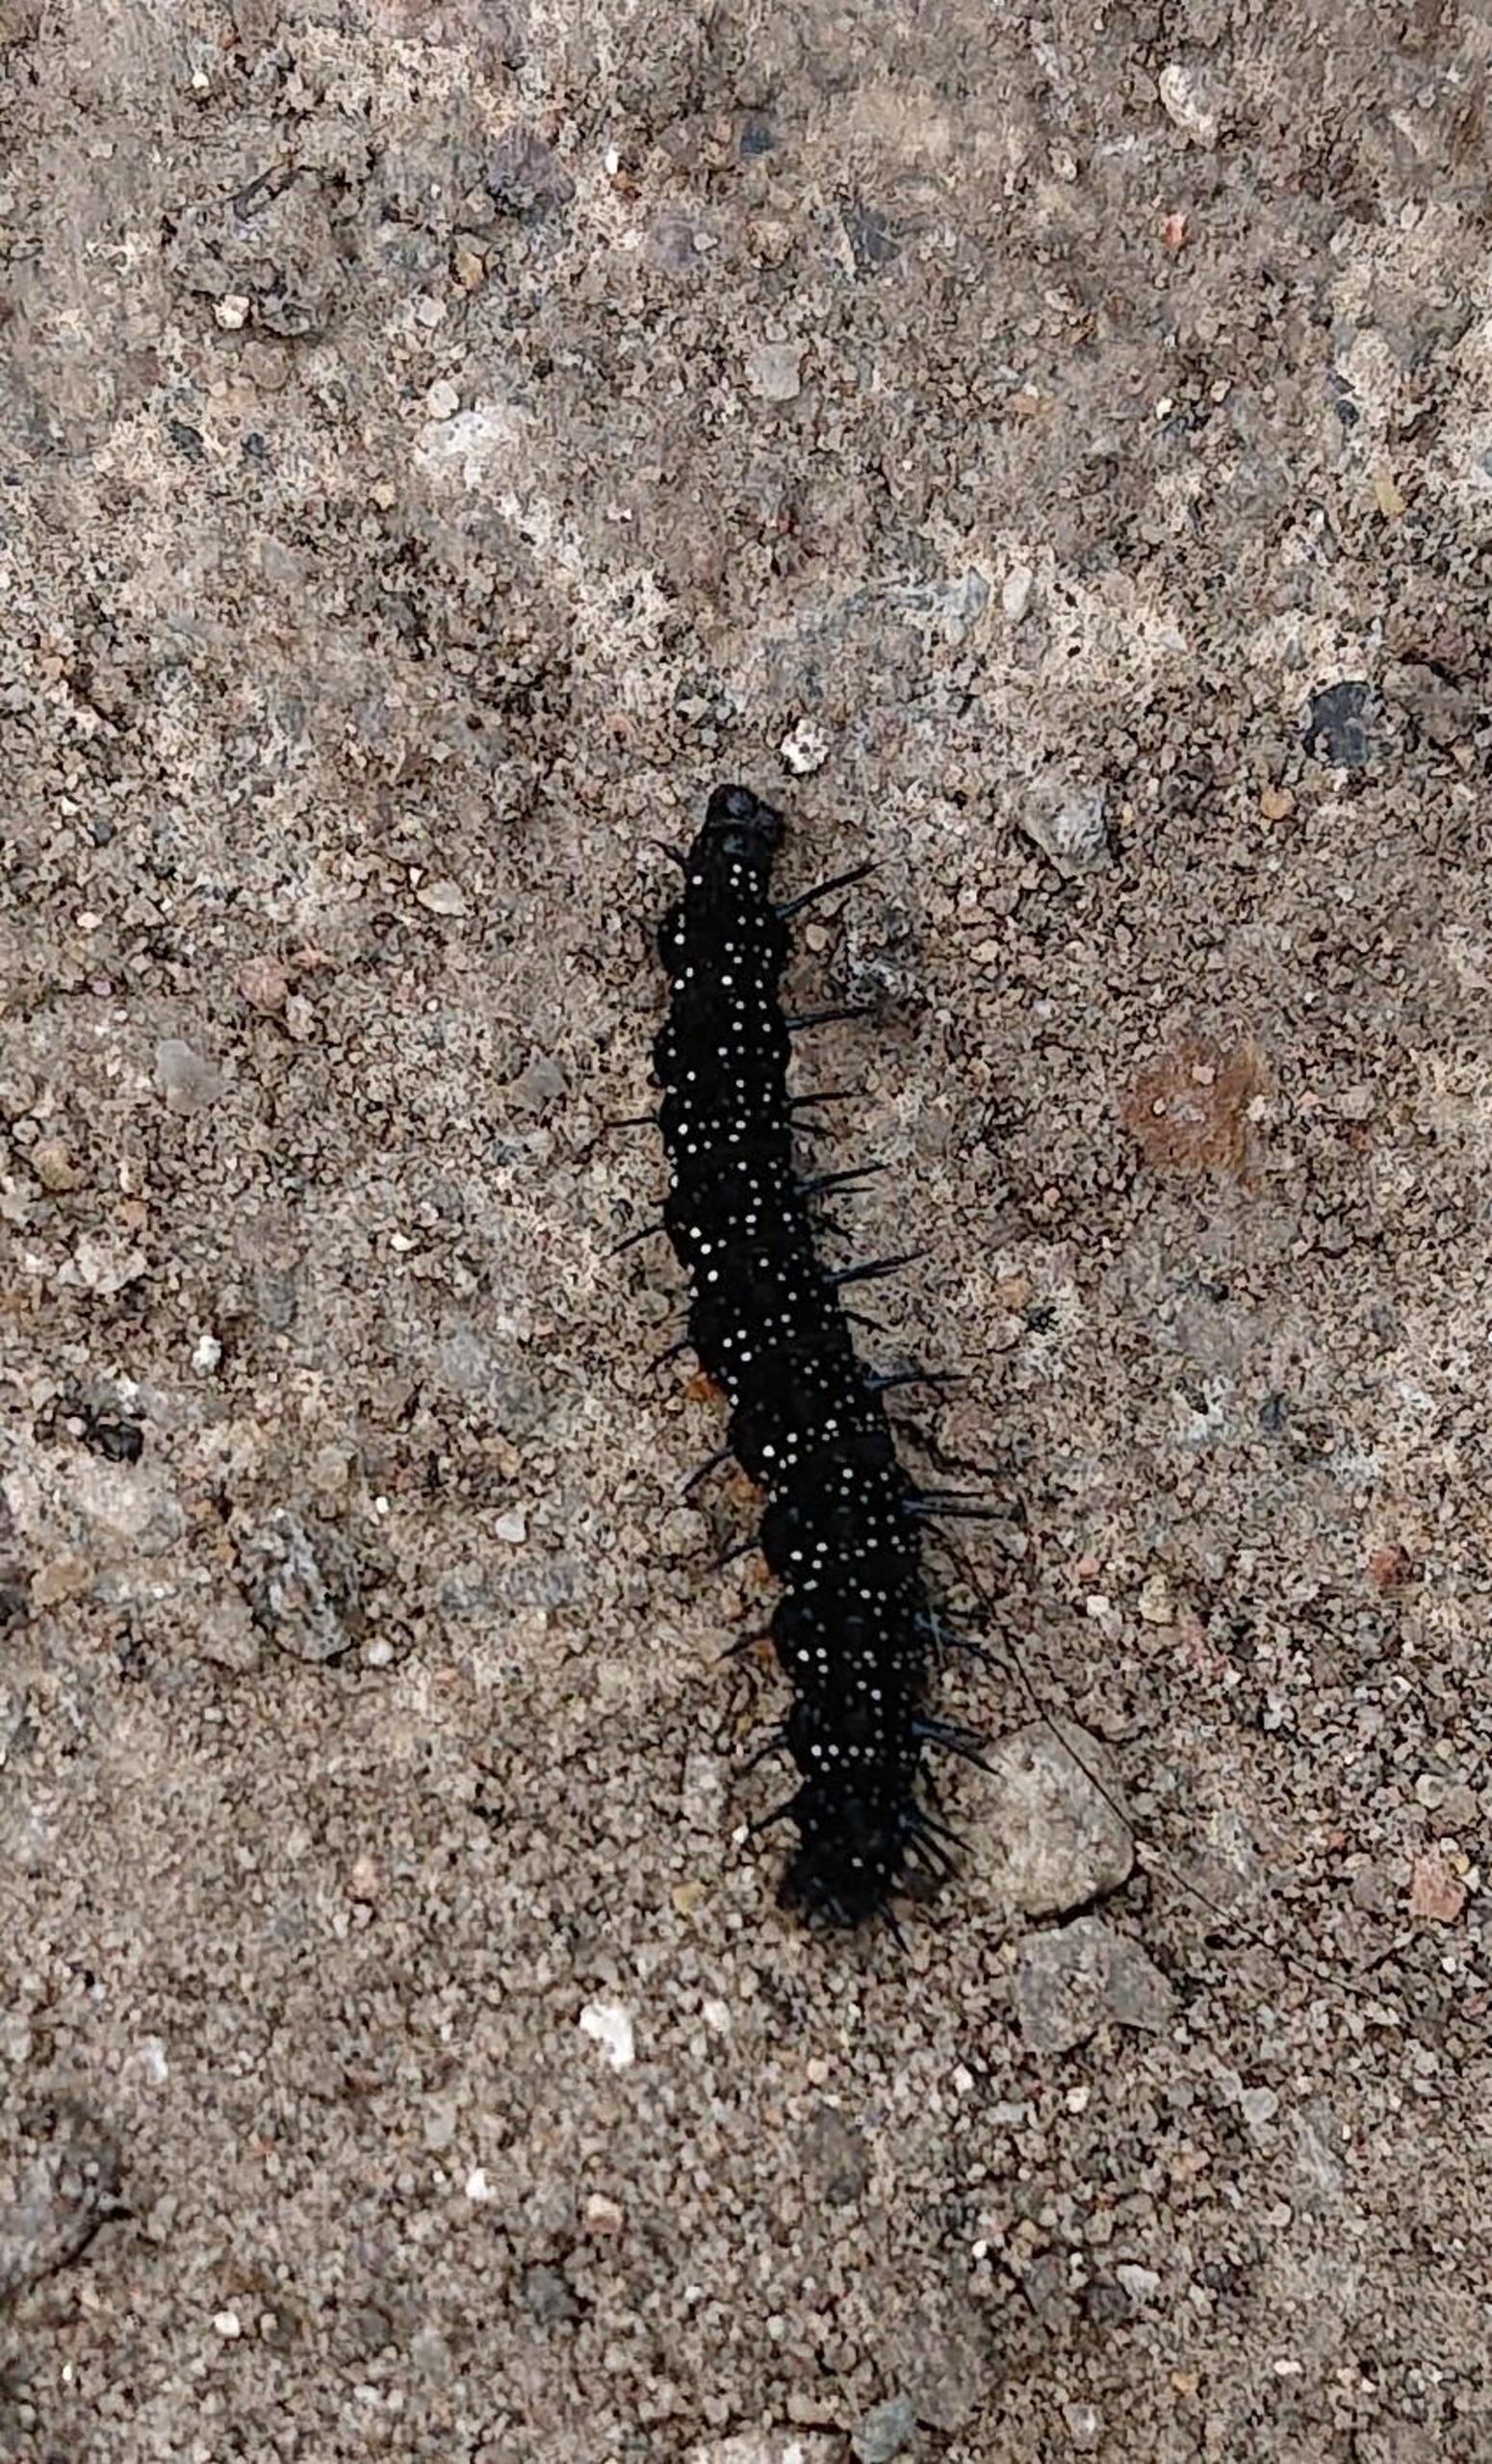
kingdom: Animalia
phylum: Arthropoda
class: Insecta
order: Lepidoptera
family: Nymphalidae
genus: Aglais
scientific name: Aglais io
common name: Dagpåfugleøje
